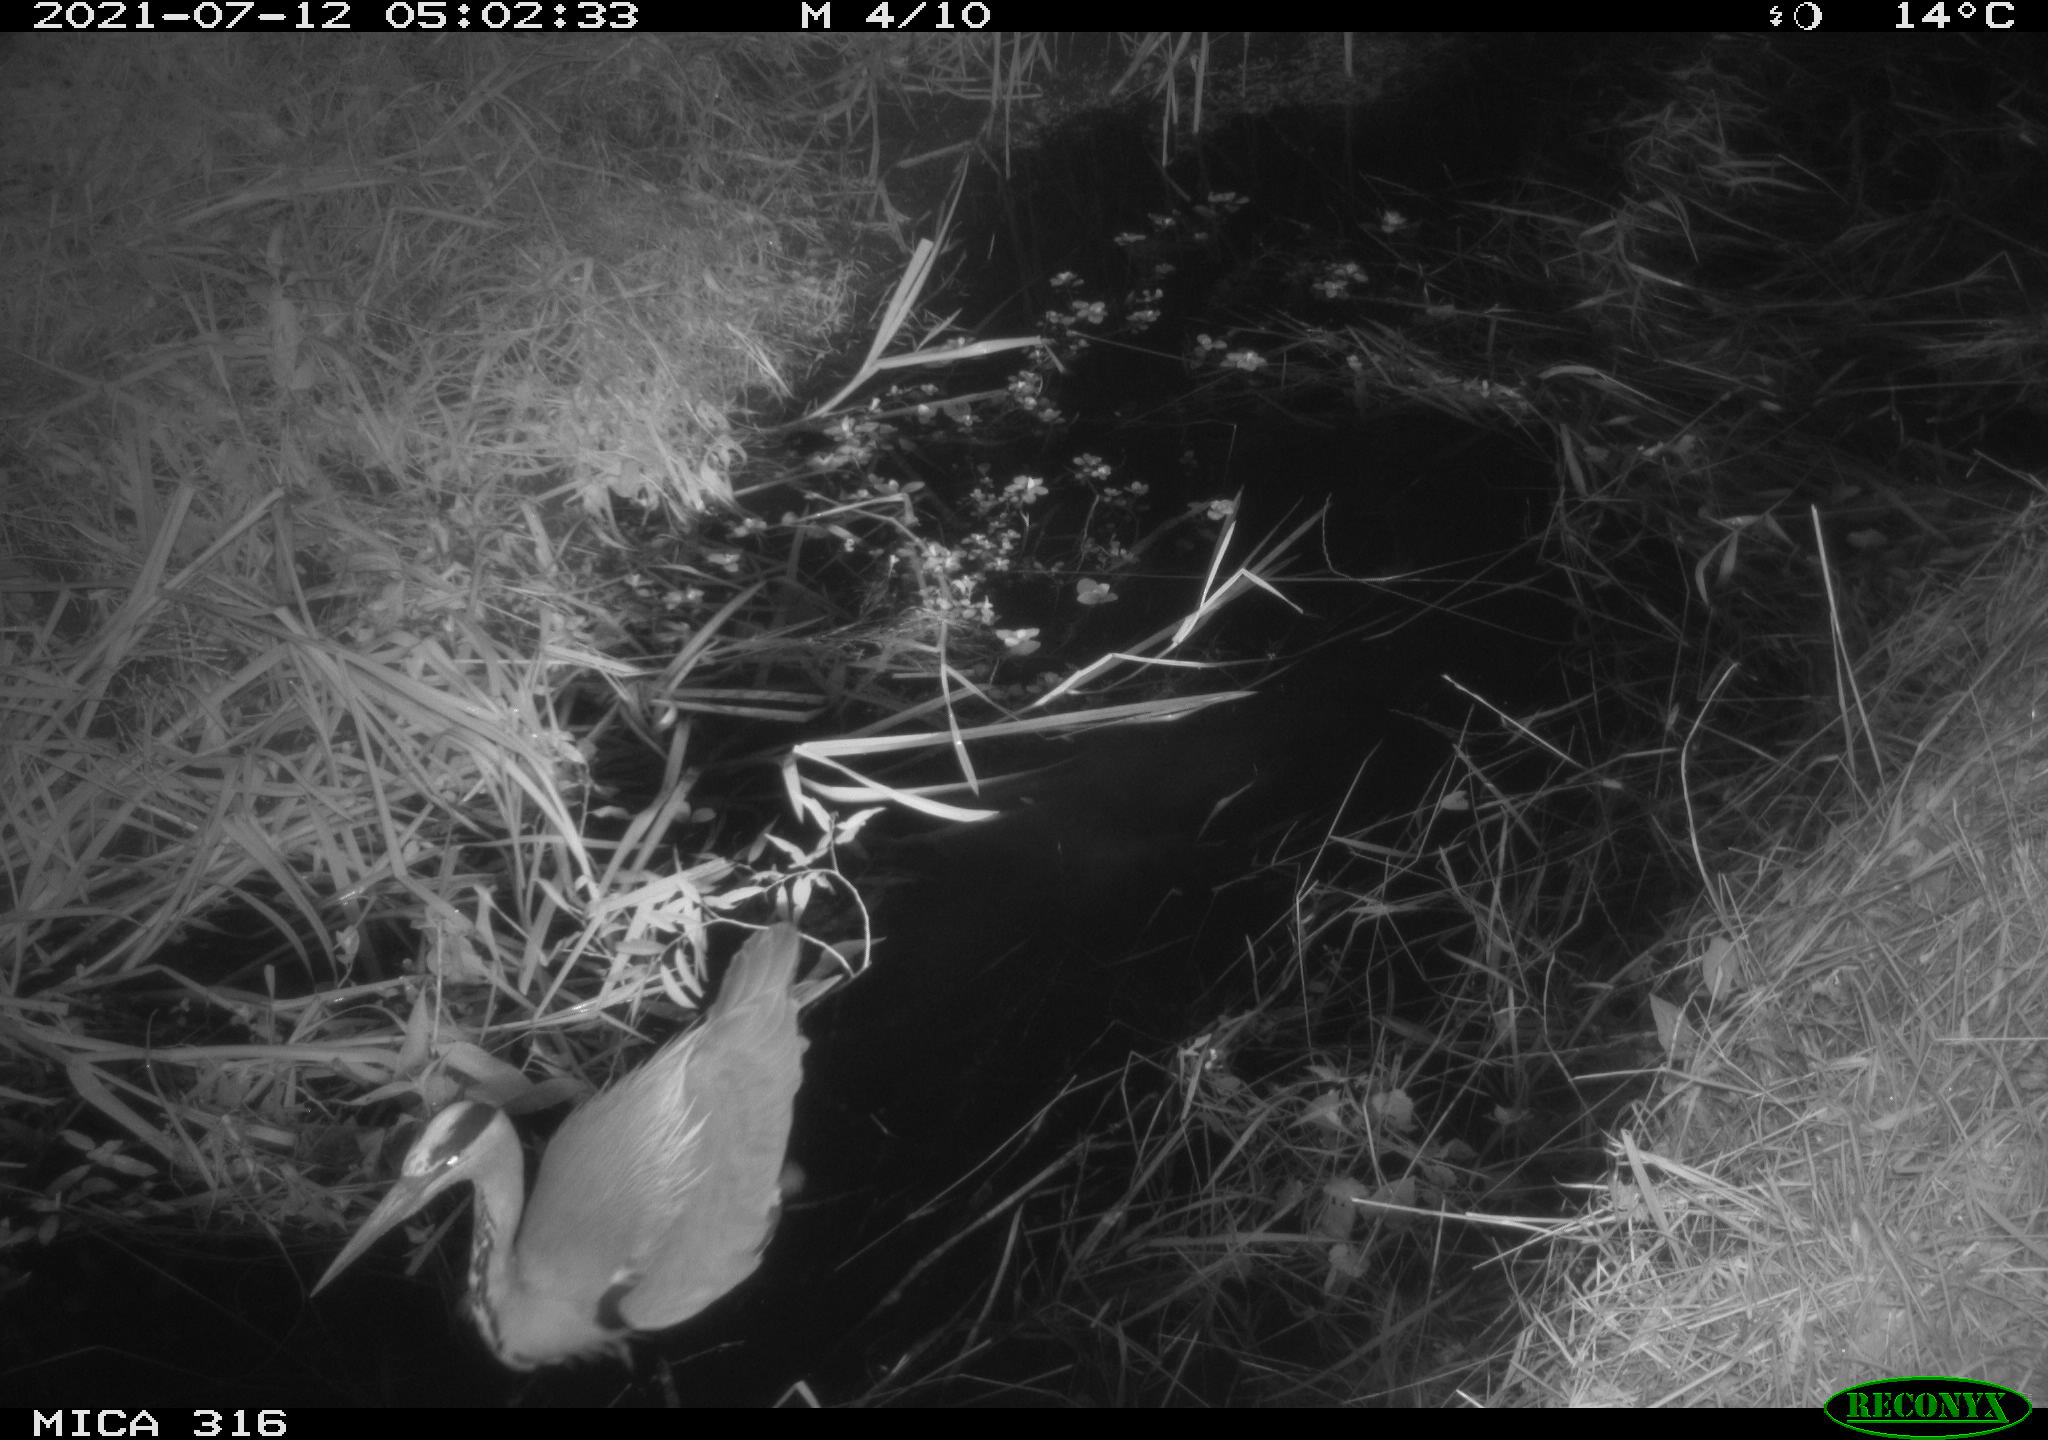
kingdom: Animalia
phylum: Chordata
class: Aves
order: Pelecaniformes
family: Ardeidae
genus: Ardea
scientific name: Ardea
